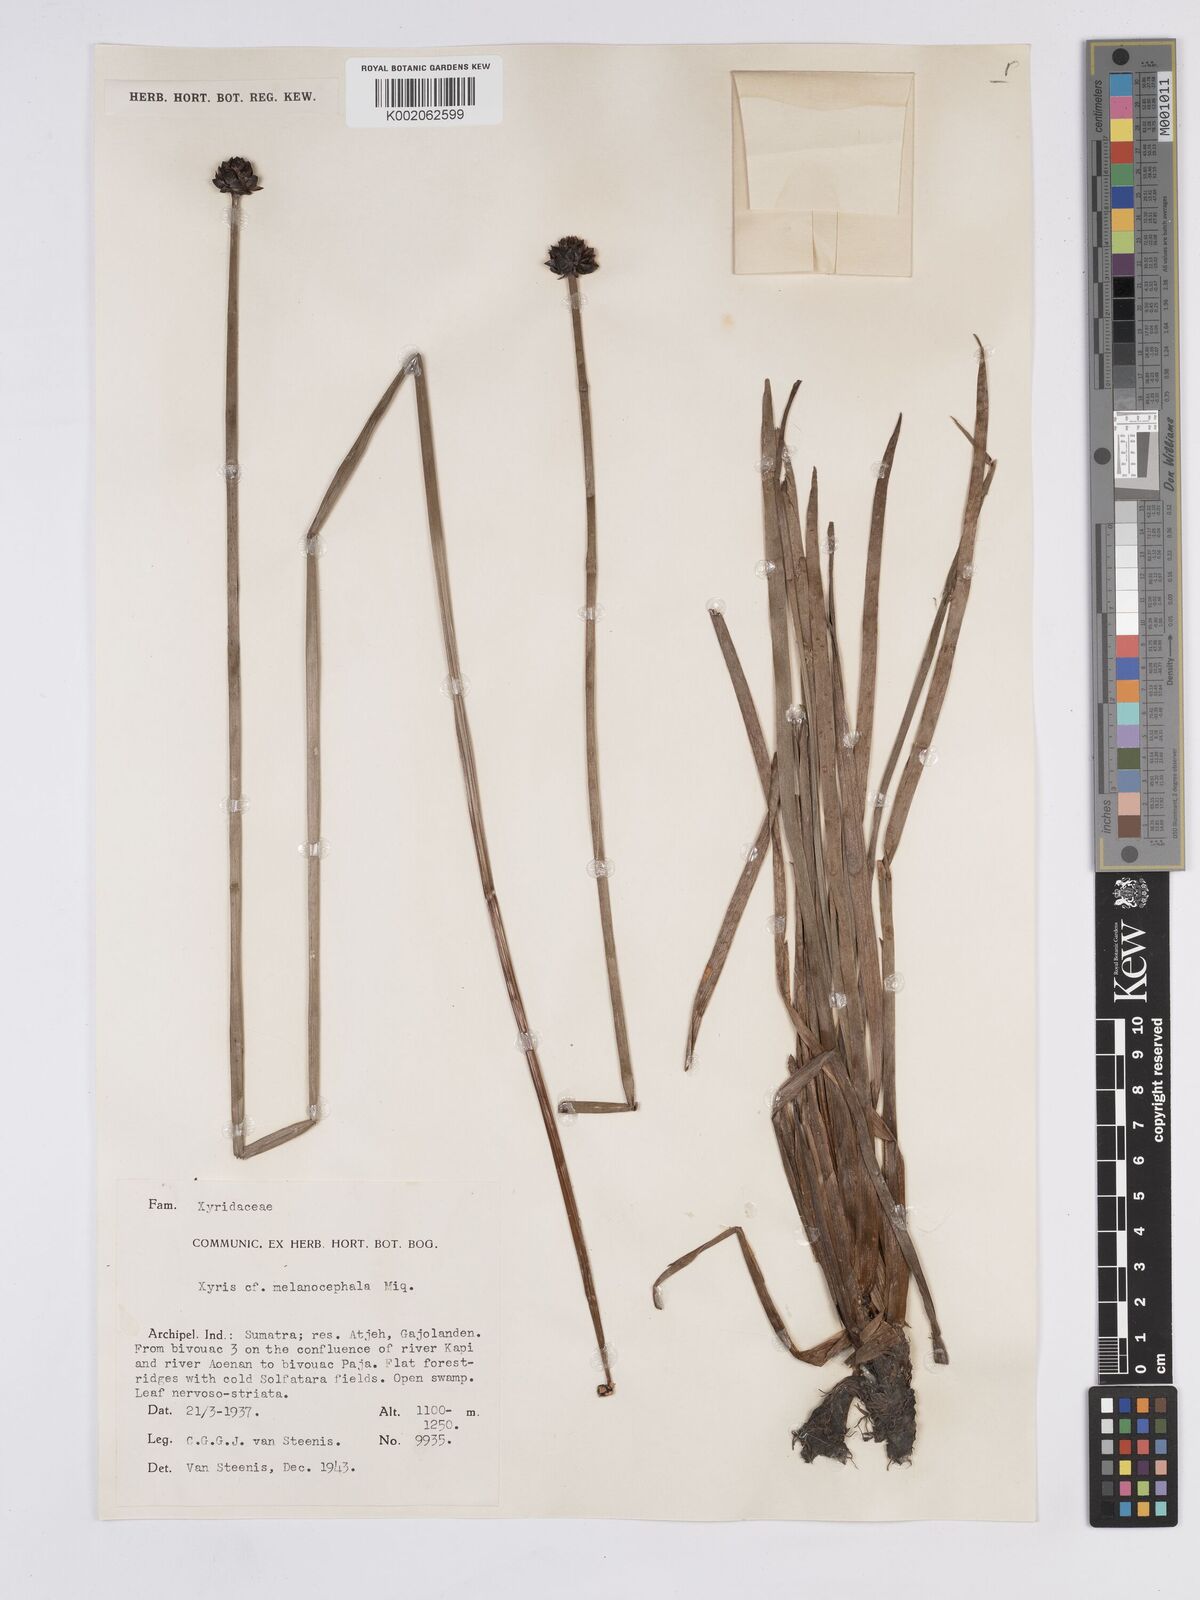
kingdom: Plantae
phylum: Tracheophyta
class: Liliopsida
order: Poales
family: Xyridaceae
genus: Xyris
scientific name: Xyris capensis
